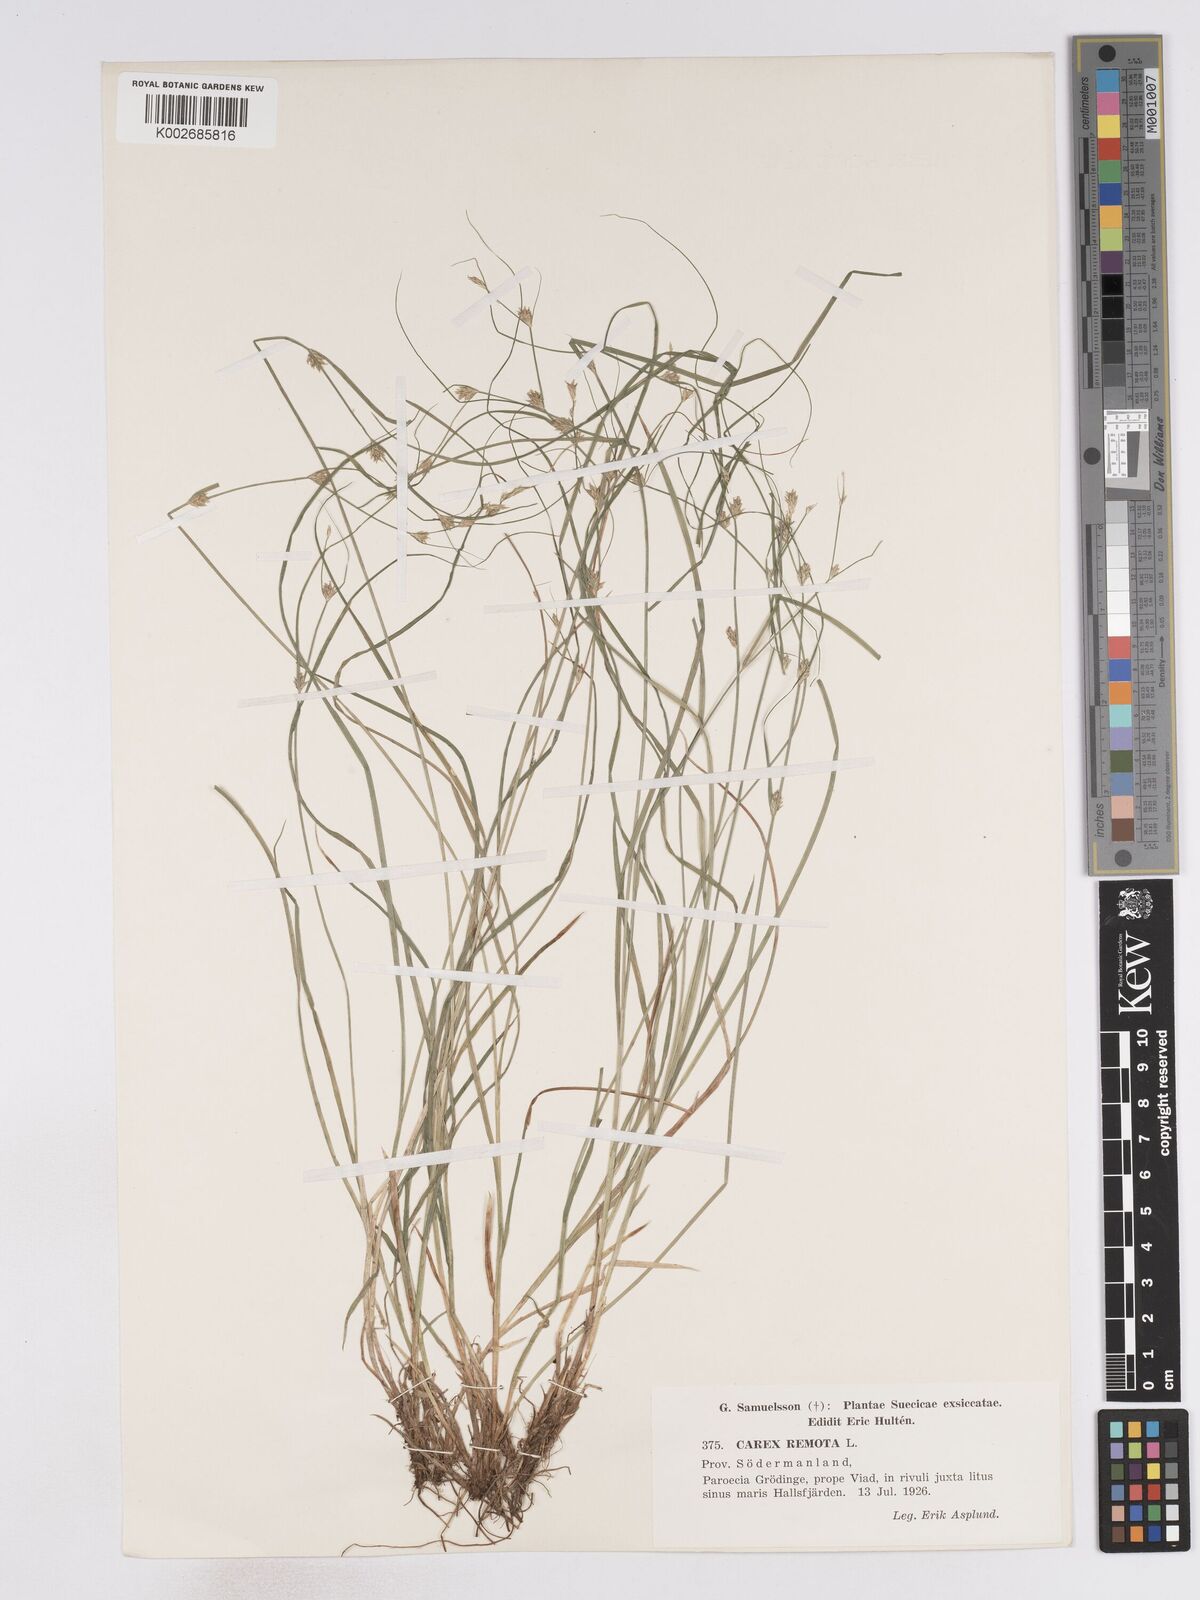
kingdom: Plantae
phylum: Tracheophyta
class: Liliopsida
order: Poales
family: Cyperaceae
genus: Carex
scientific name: Carex remota
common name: Remote sedge
